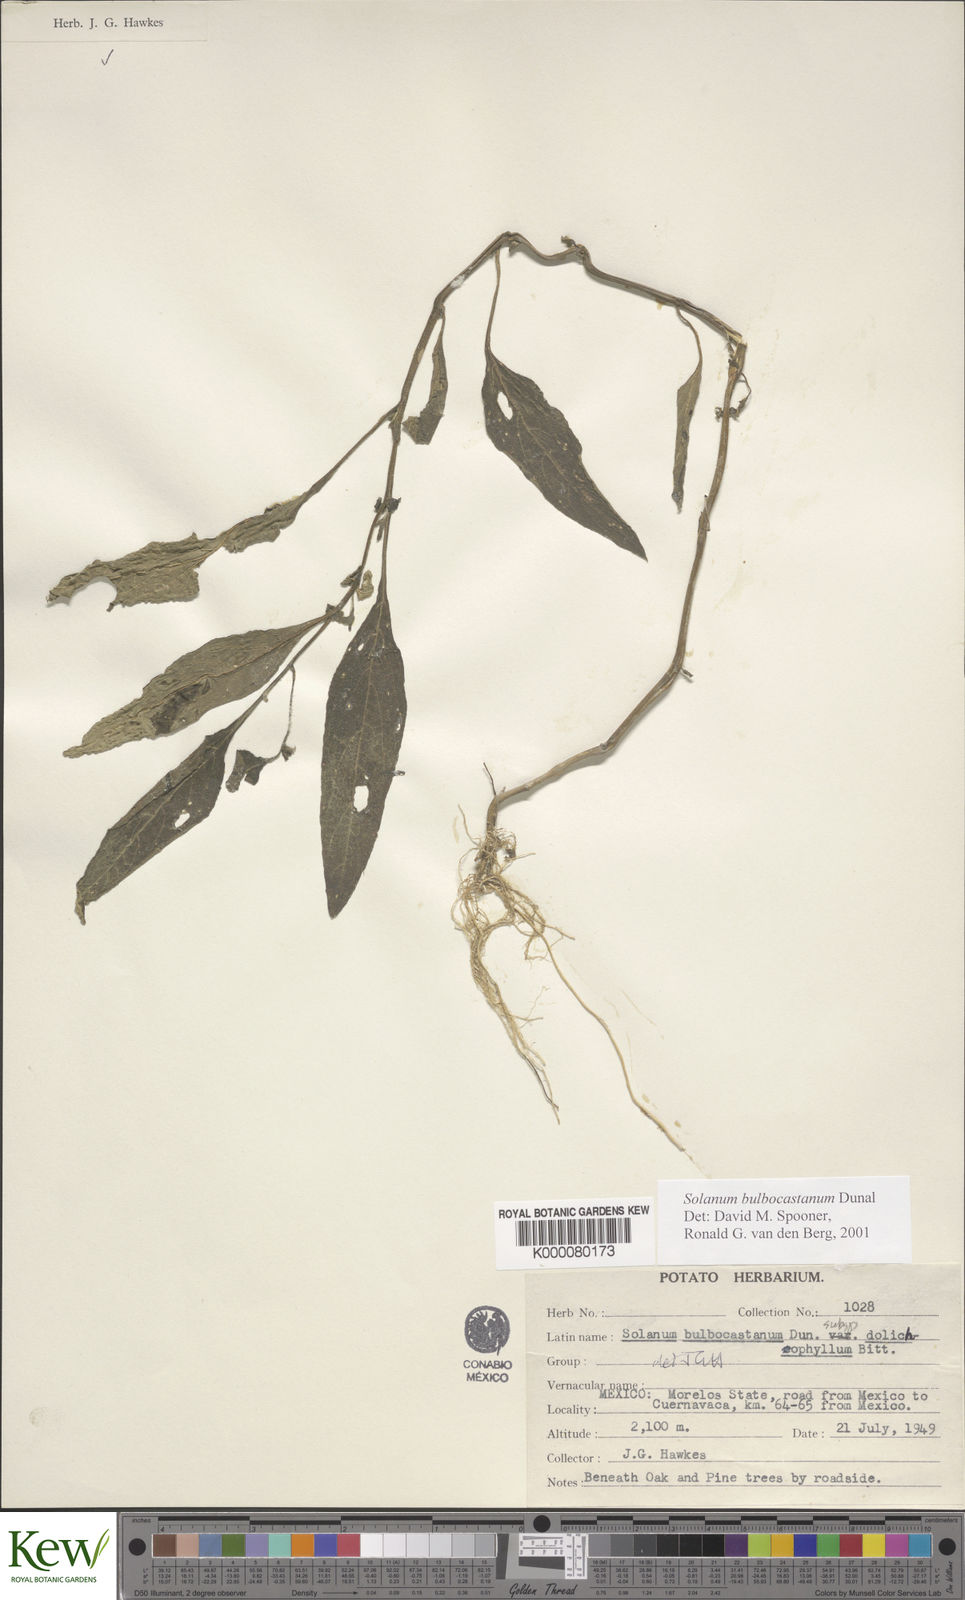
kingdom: Plantae
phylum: Tracheophyta
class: Magnoliopsida
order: Solanales
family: Solanaceae
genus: Solanum
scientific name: Solanum bulbocastanum
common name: Ornamental nightshade
